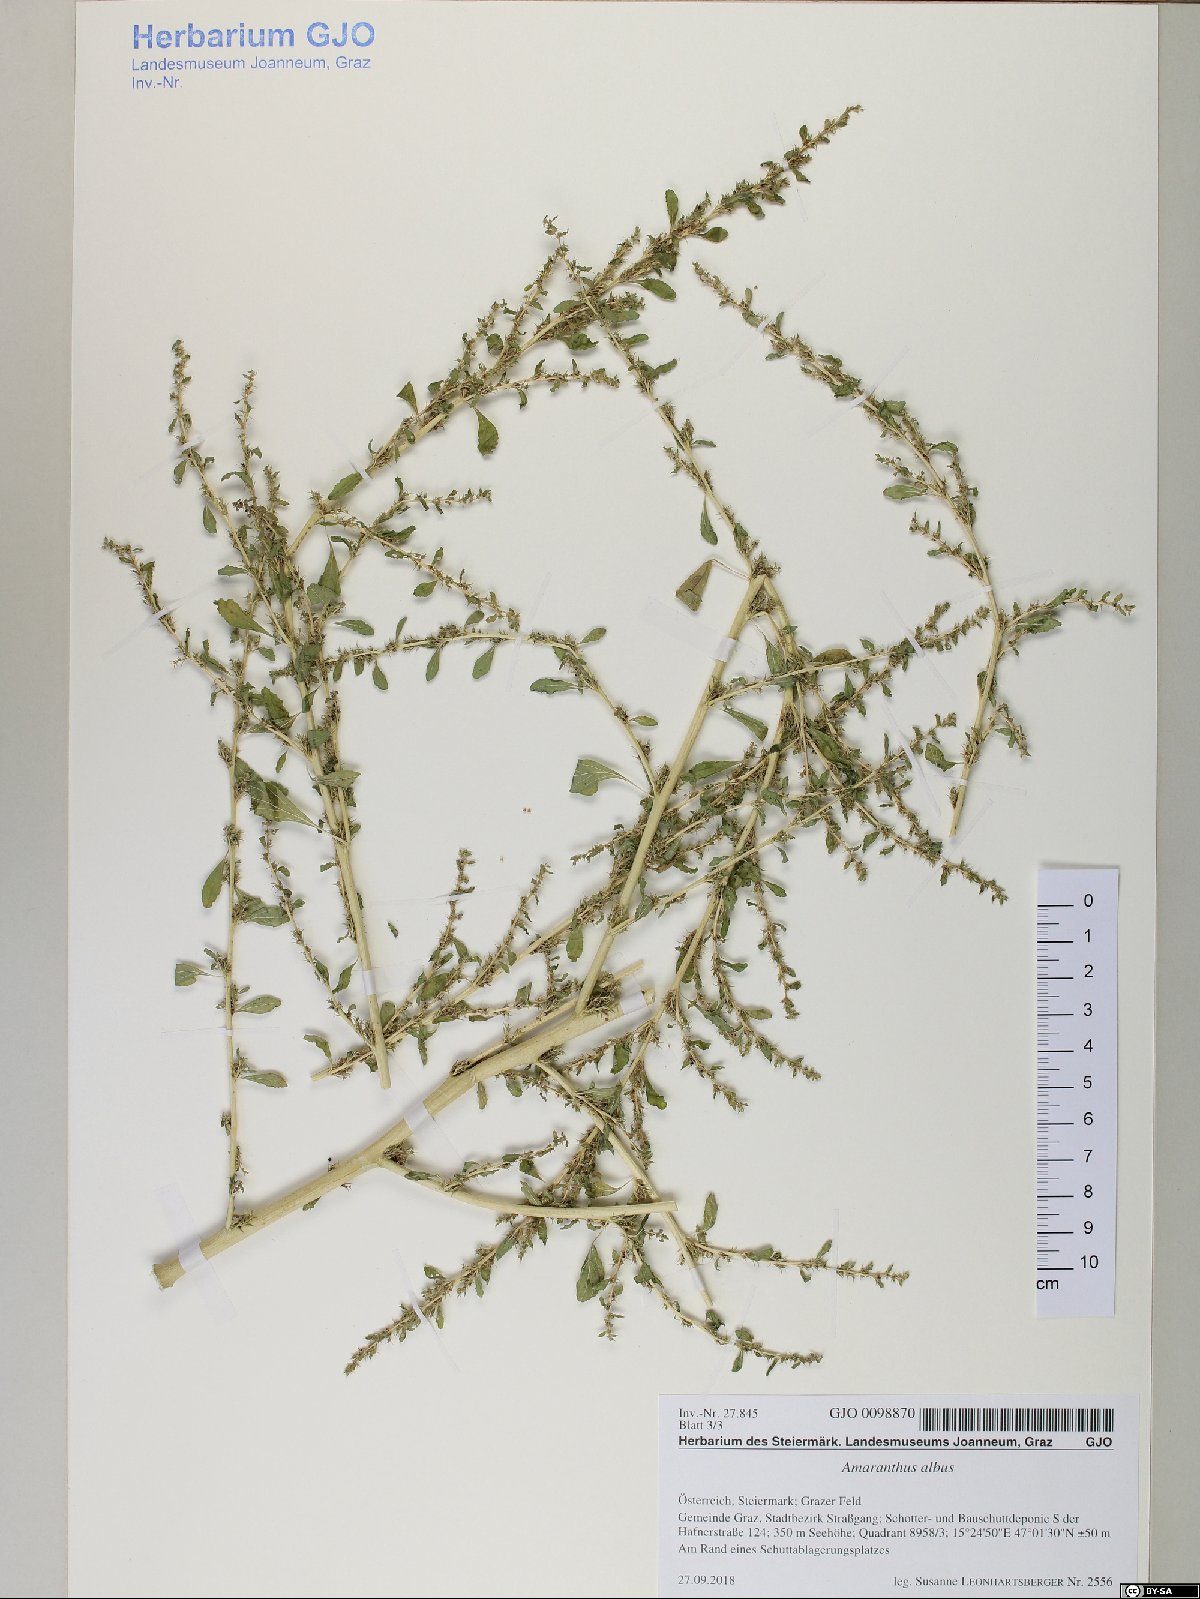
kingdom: Plantae
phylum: Tracheophyta
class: Magnoliopsida
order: Caryophyllales
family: Amaranthaceae
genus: Amaranthus
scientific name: Amaranthus albus
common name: White pigweed
